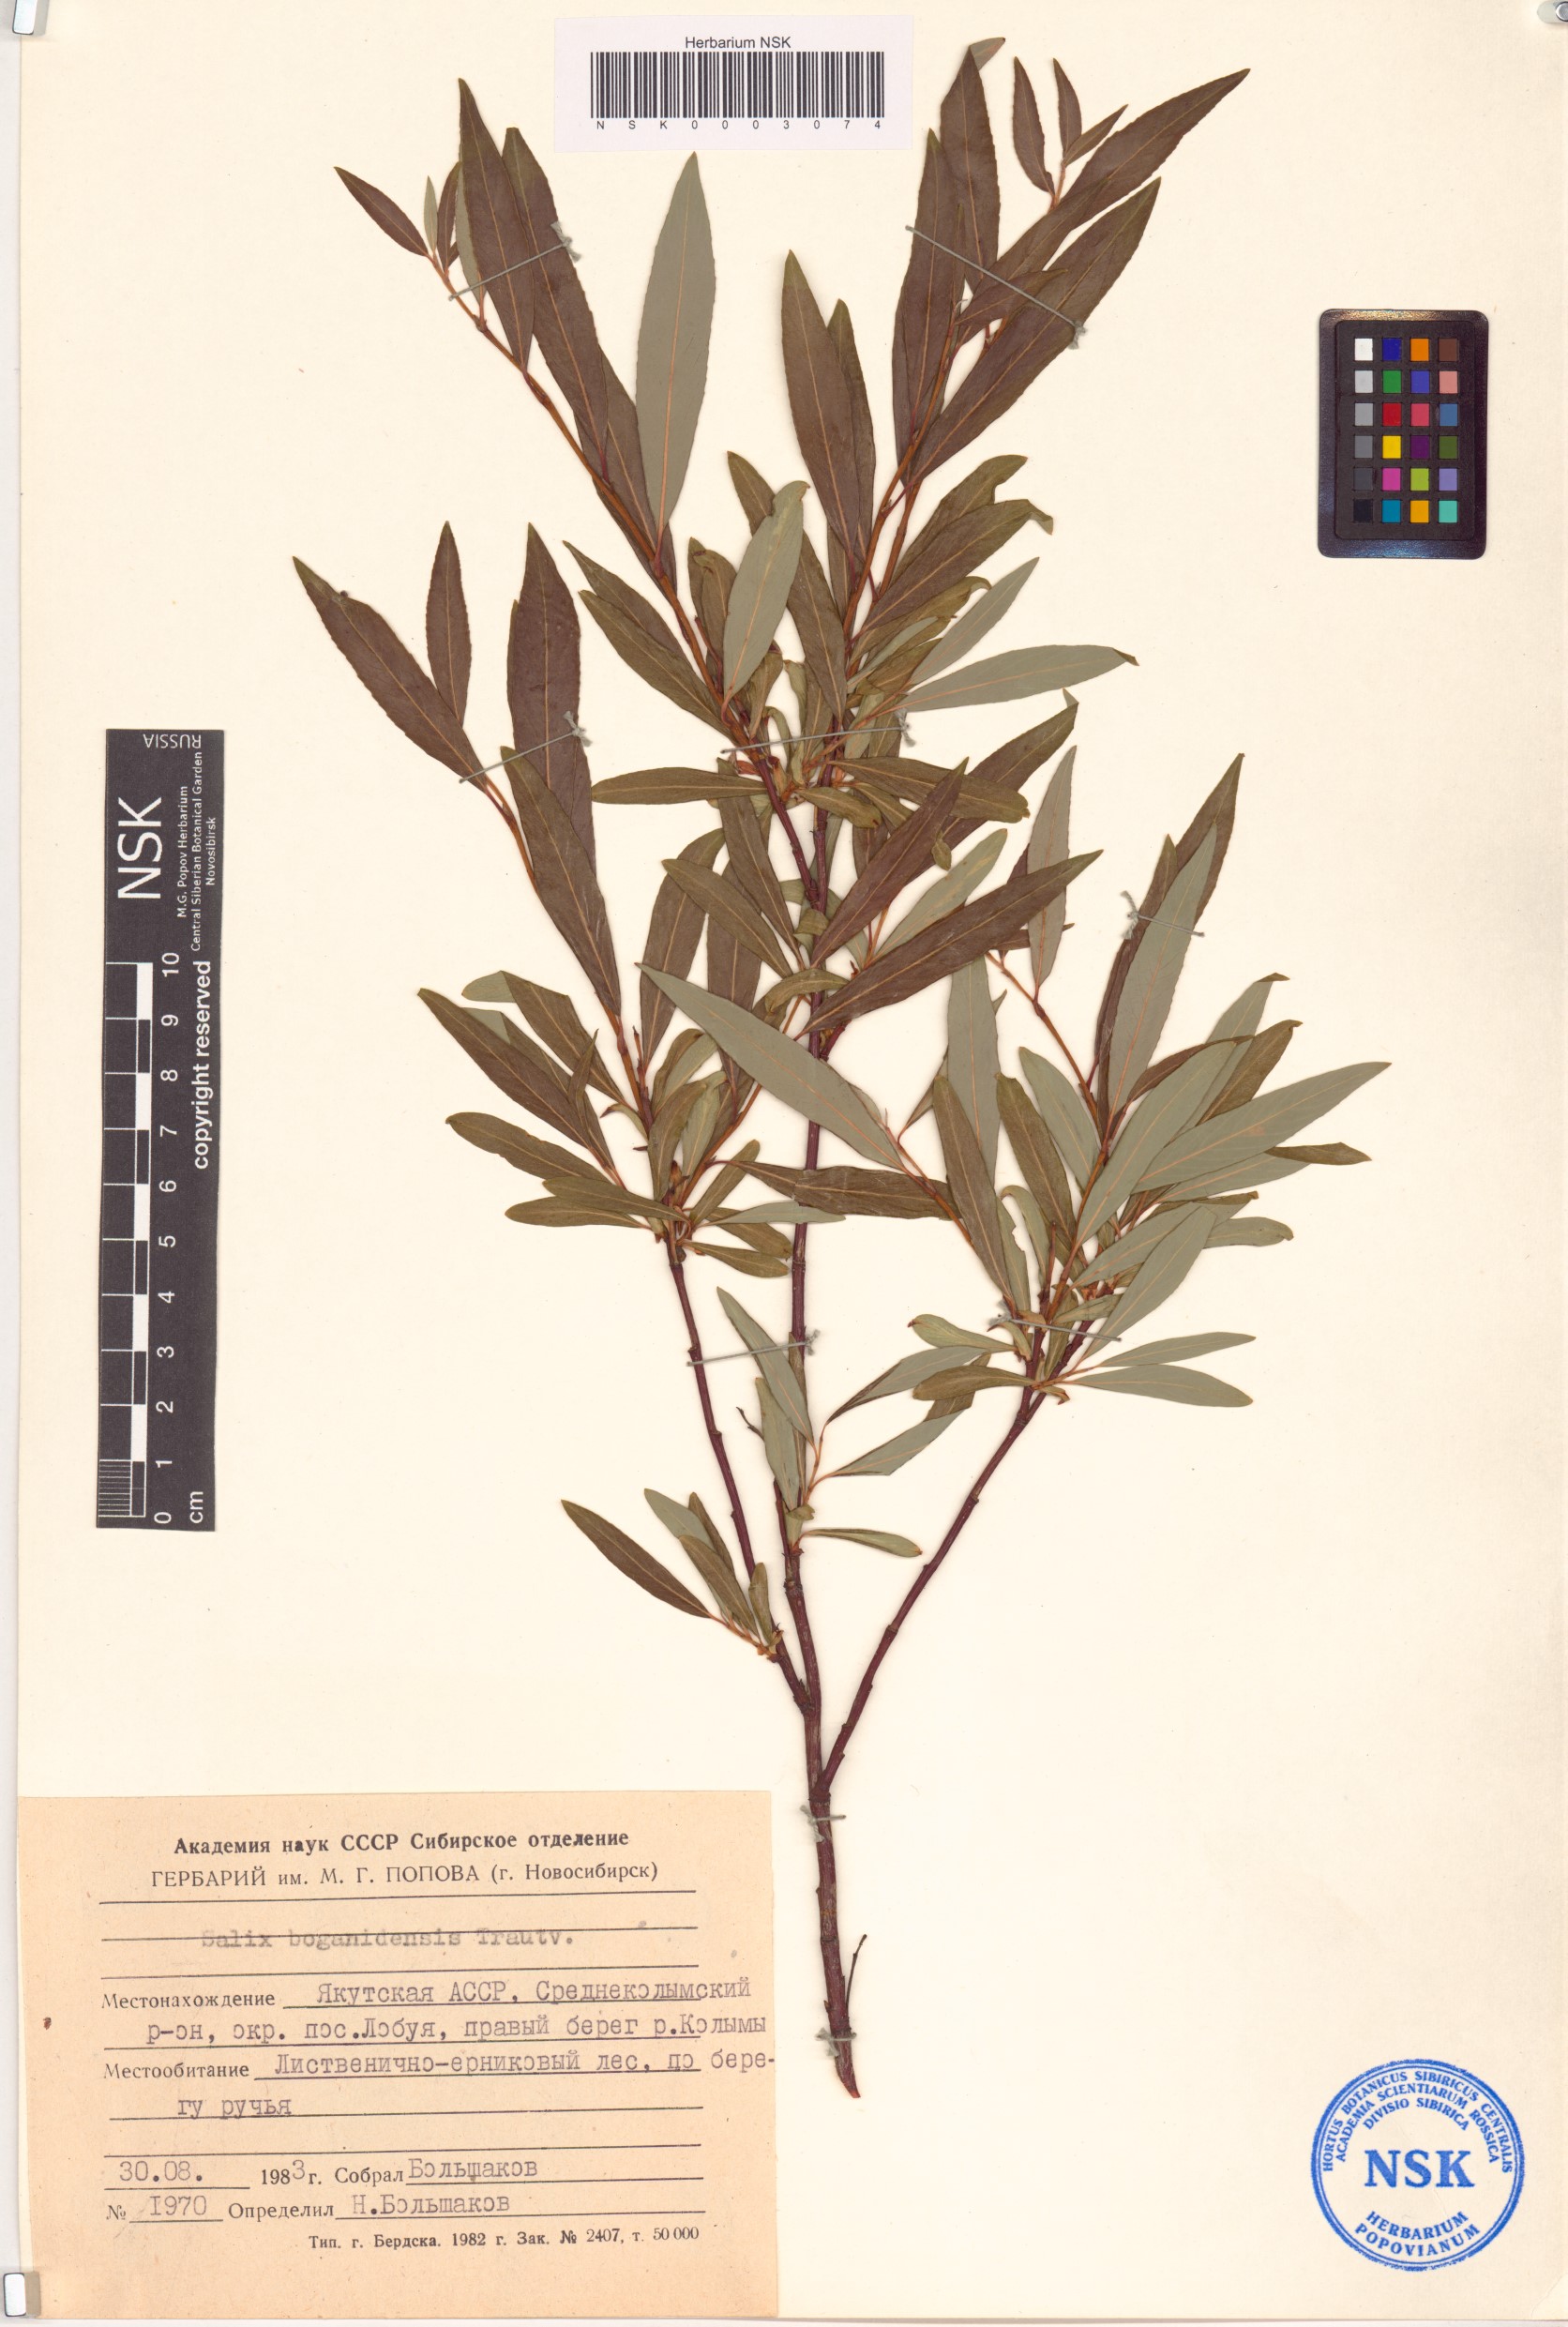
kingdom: Plantae
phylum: Tracheophyta
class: Magnoliopsida
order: Malpighiales
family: Salicaceae
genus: Salix
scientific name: Salix boganidensis
